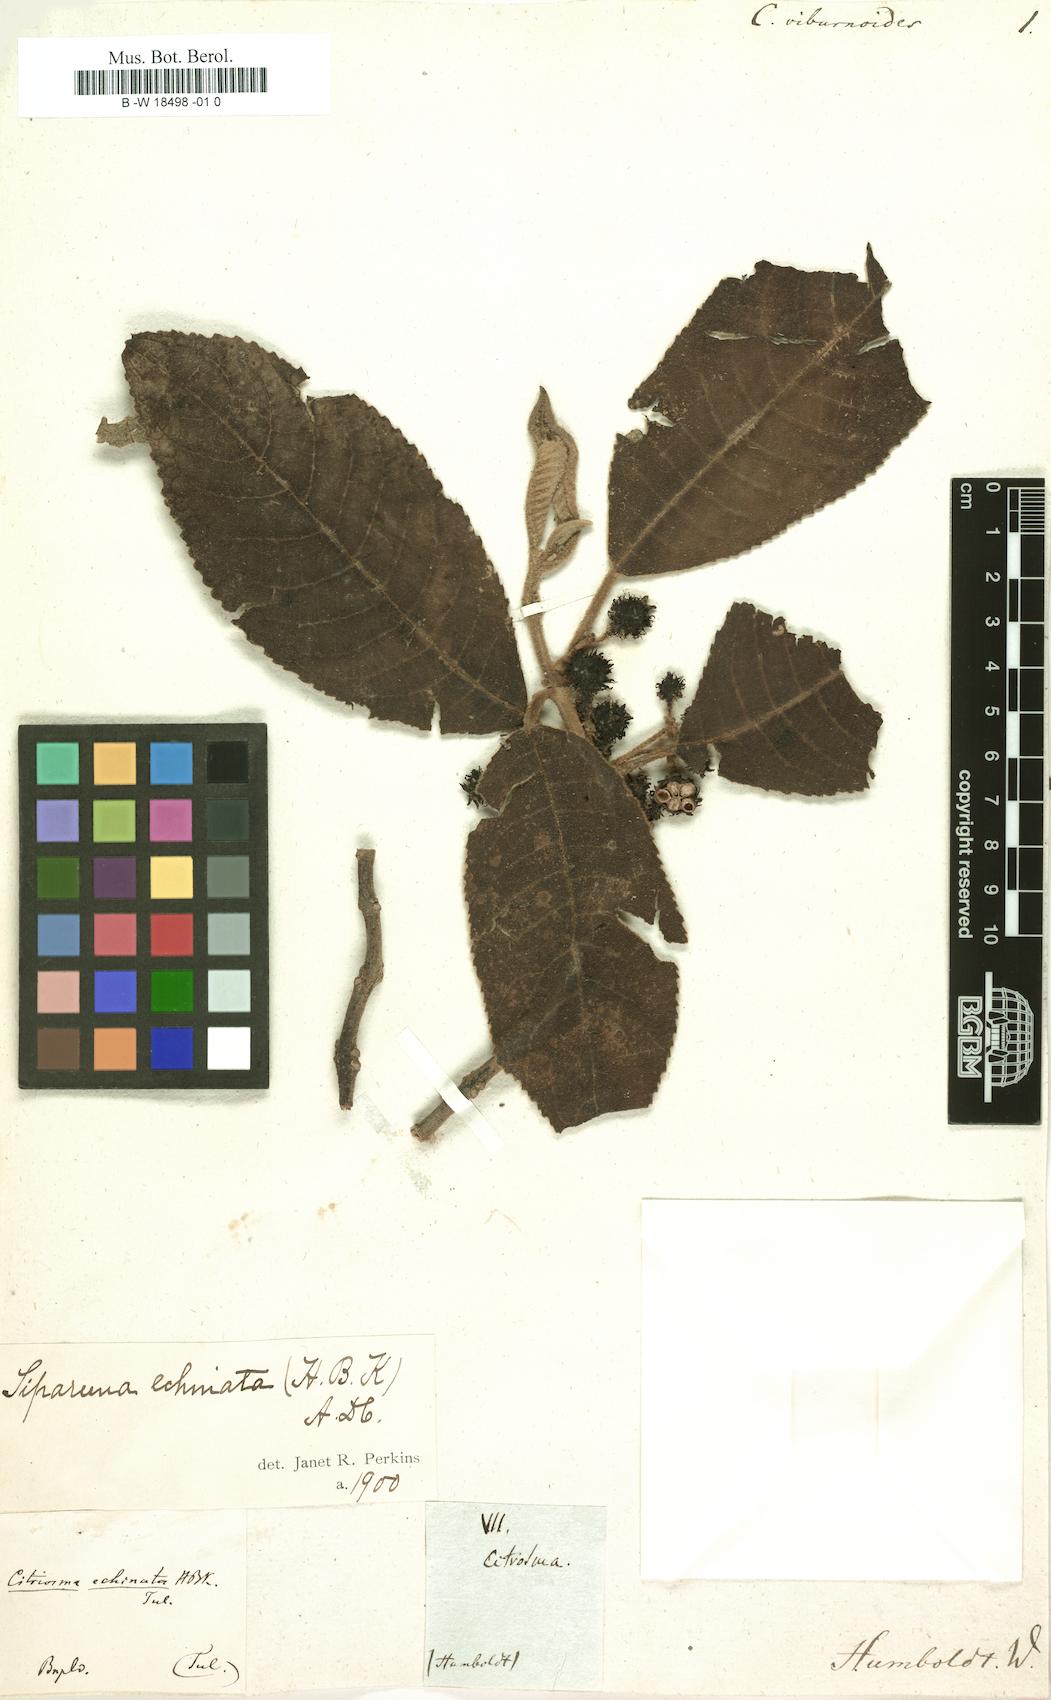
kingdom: Plantae
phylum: Tracheophyta
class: Magnoliopsida
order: Laurales
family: Siparunaceae
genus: Siparuna
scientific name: Siparuna
